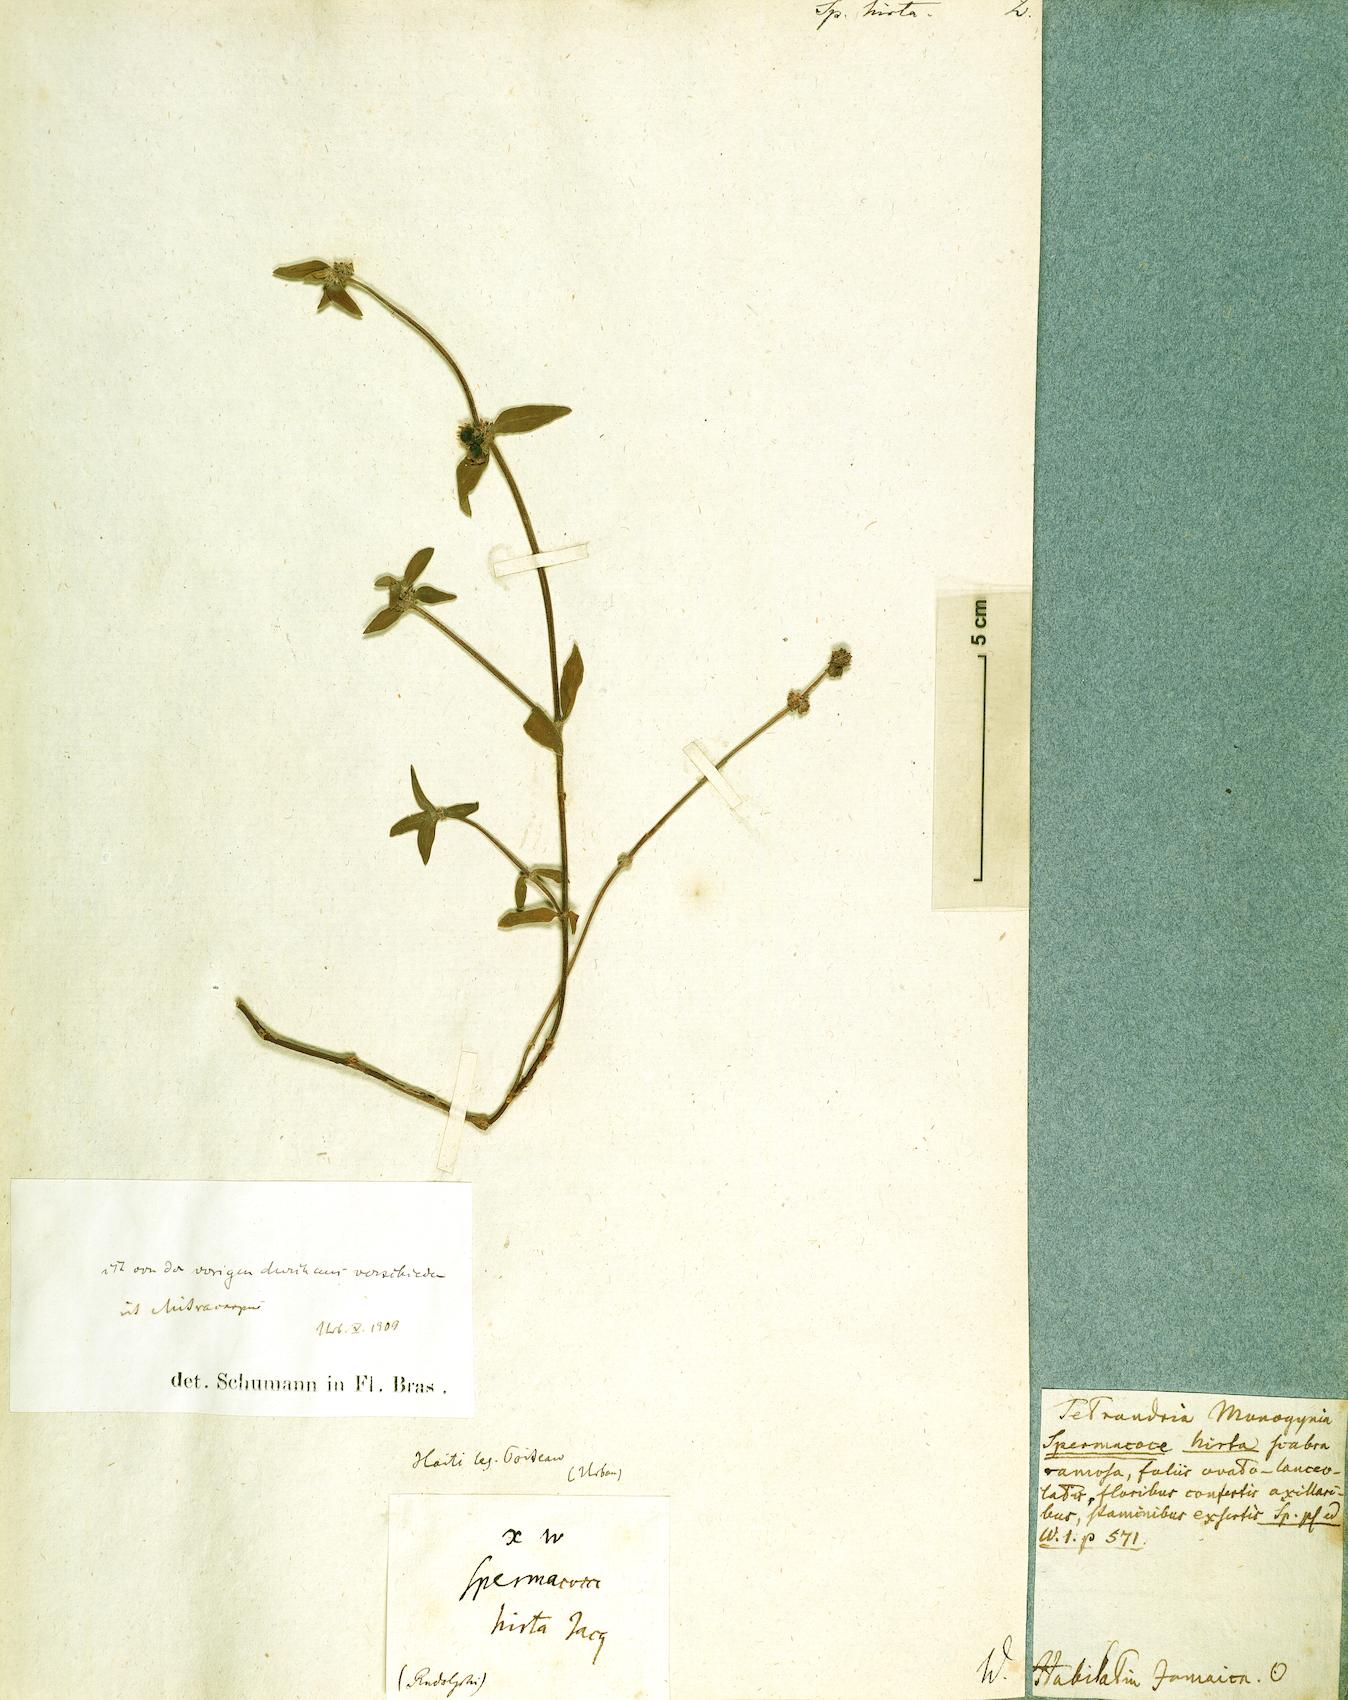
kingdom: Plantae
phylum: Tracheophyta
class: Magnoliopsida
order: Gentianales
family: Rubiaceae
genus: Spermacoce
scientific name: Spermacoce hirta
